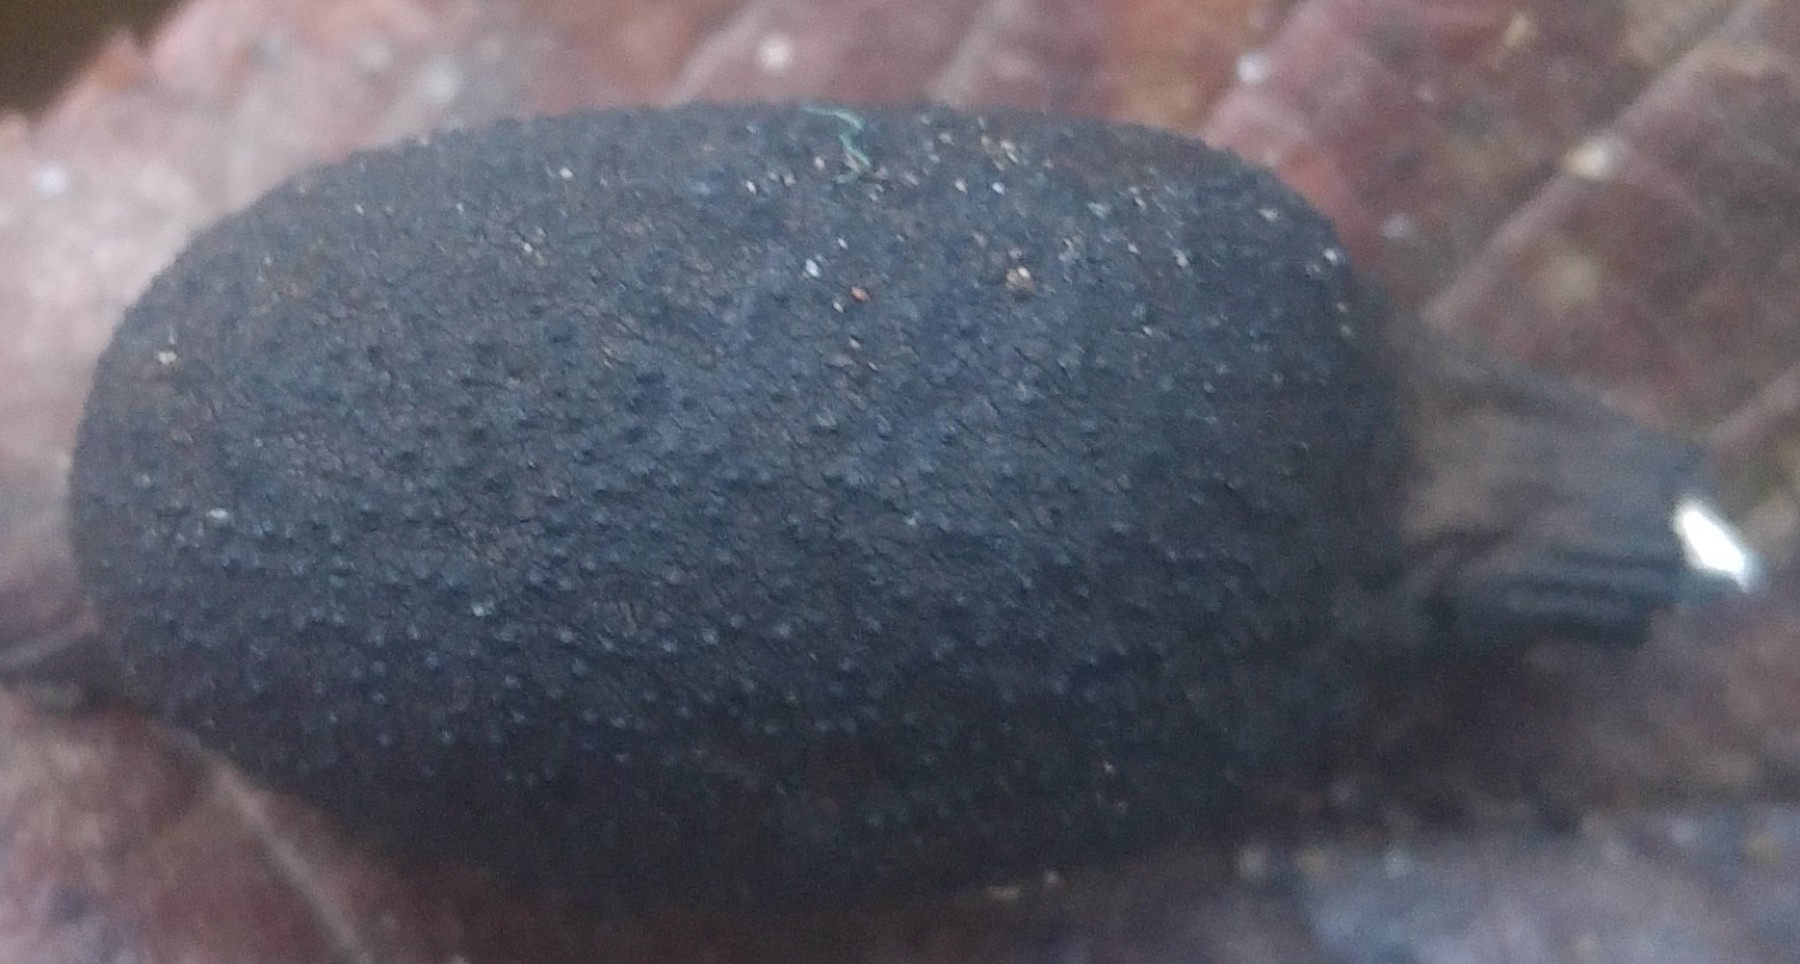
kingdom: Fungi
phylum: Ascomycota
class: Sordariomycetes
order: Xylariales
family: Xylariaceae
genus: Xylaria
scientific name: Xylaria polymorpha
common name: kølle-stødsvamp
